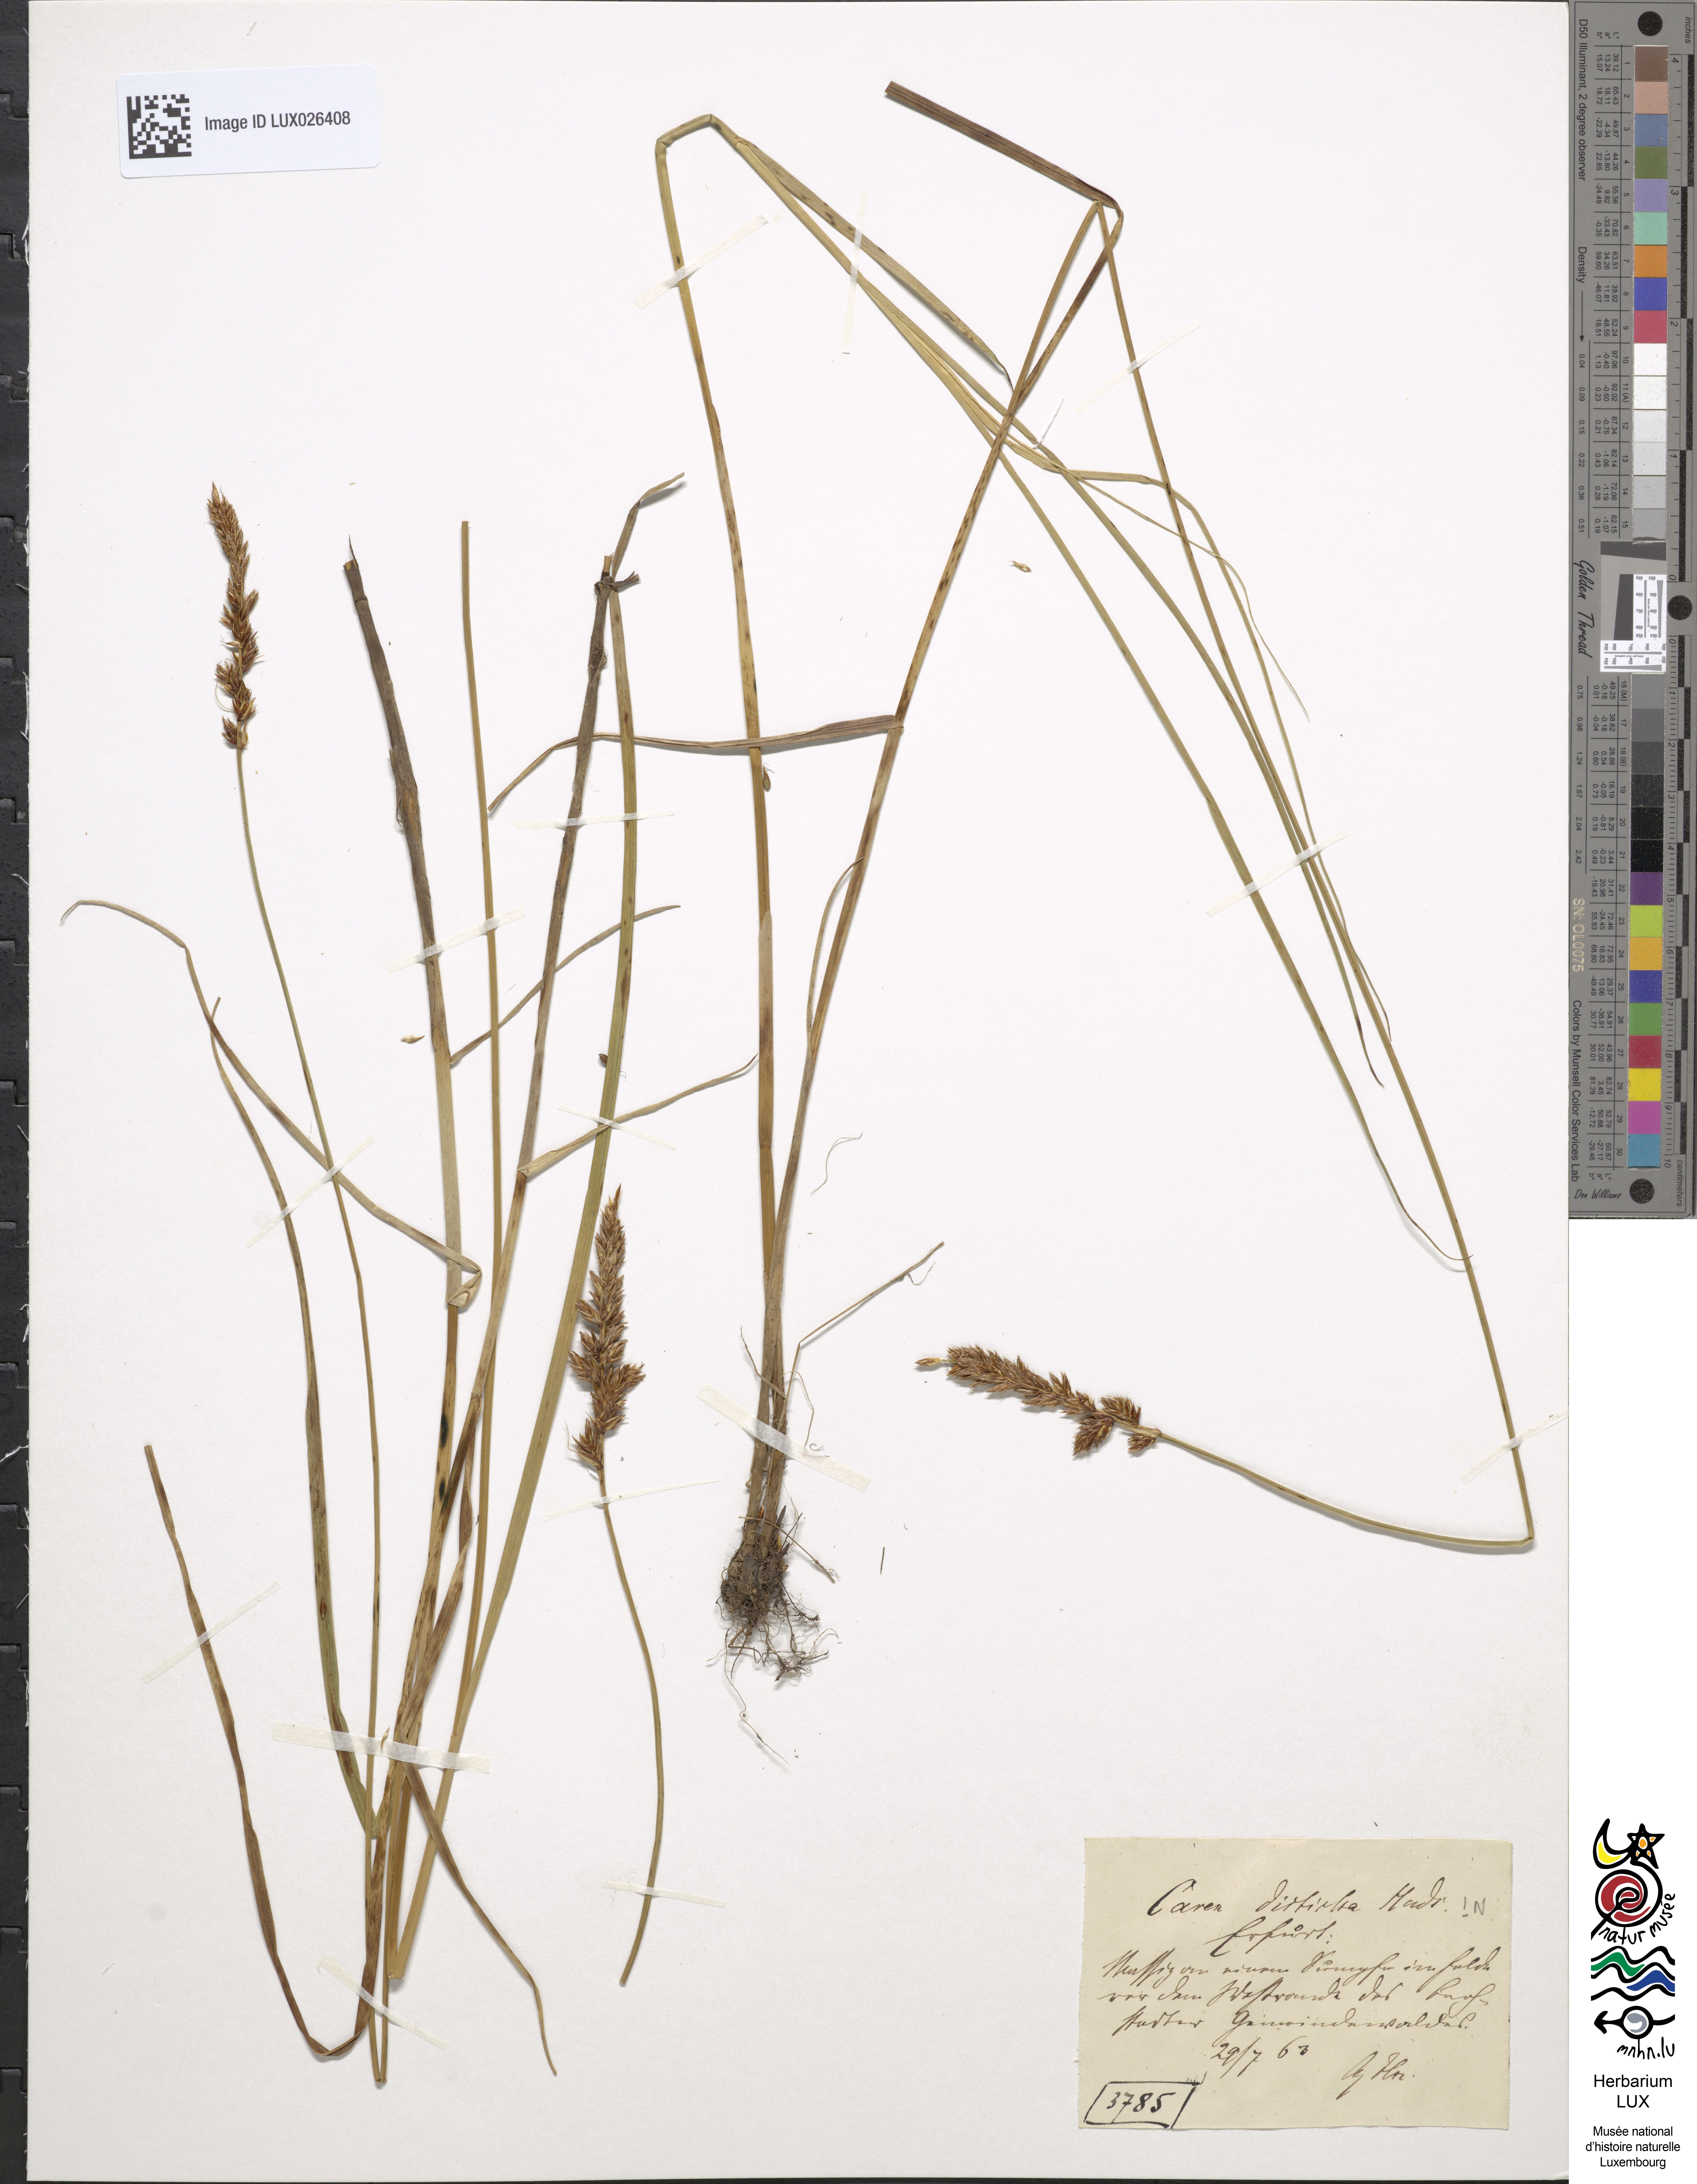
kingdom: Plantae
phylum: Tracheophyta
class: Liliopsida
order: Poales
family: Cyperaceae
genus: Carex
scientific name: Carex disticha
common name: Brown sedge
